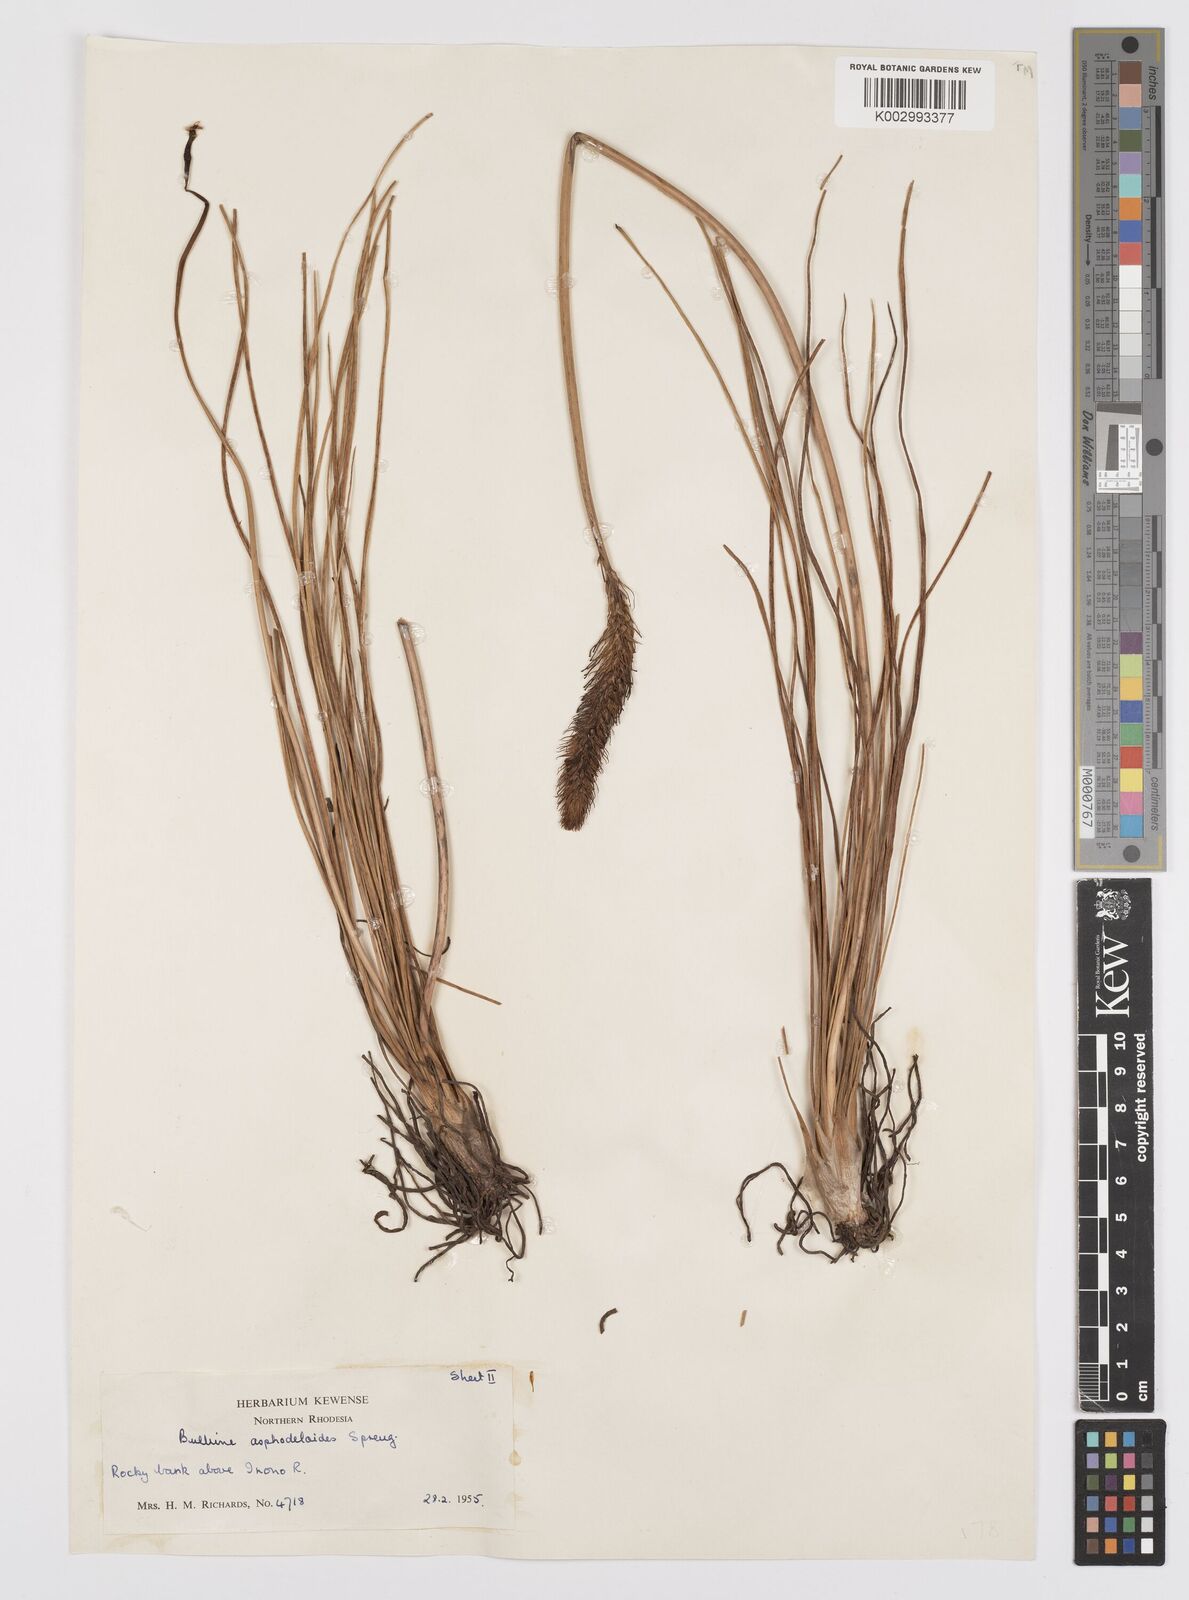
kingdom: Plantae
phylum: Tracheophyta
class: Liliopsida
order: Asparagales
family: Asphodelaceae
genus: Bulbine
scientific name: Bulbine abyssinica
